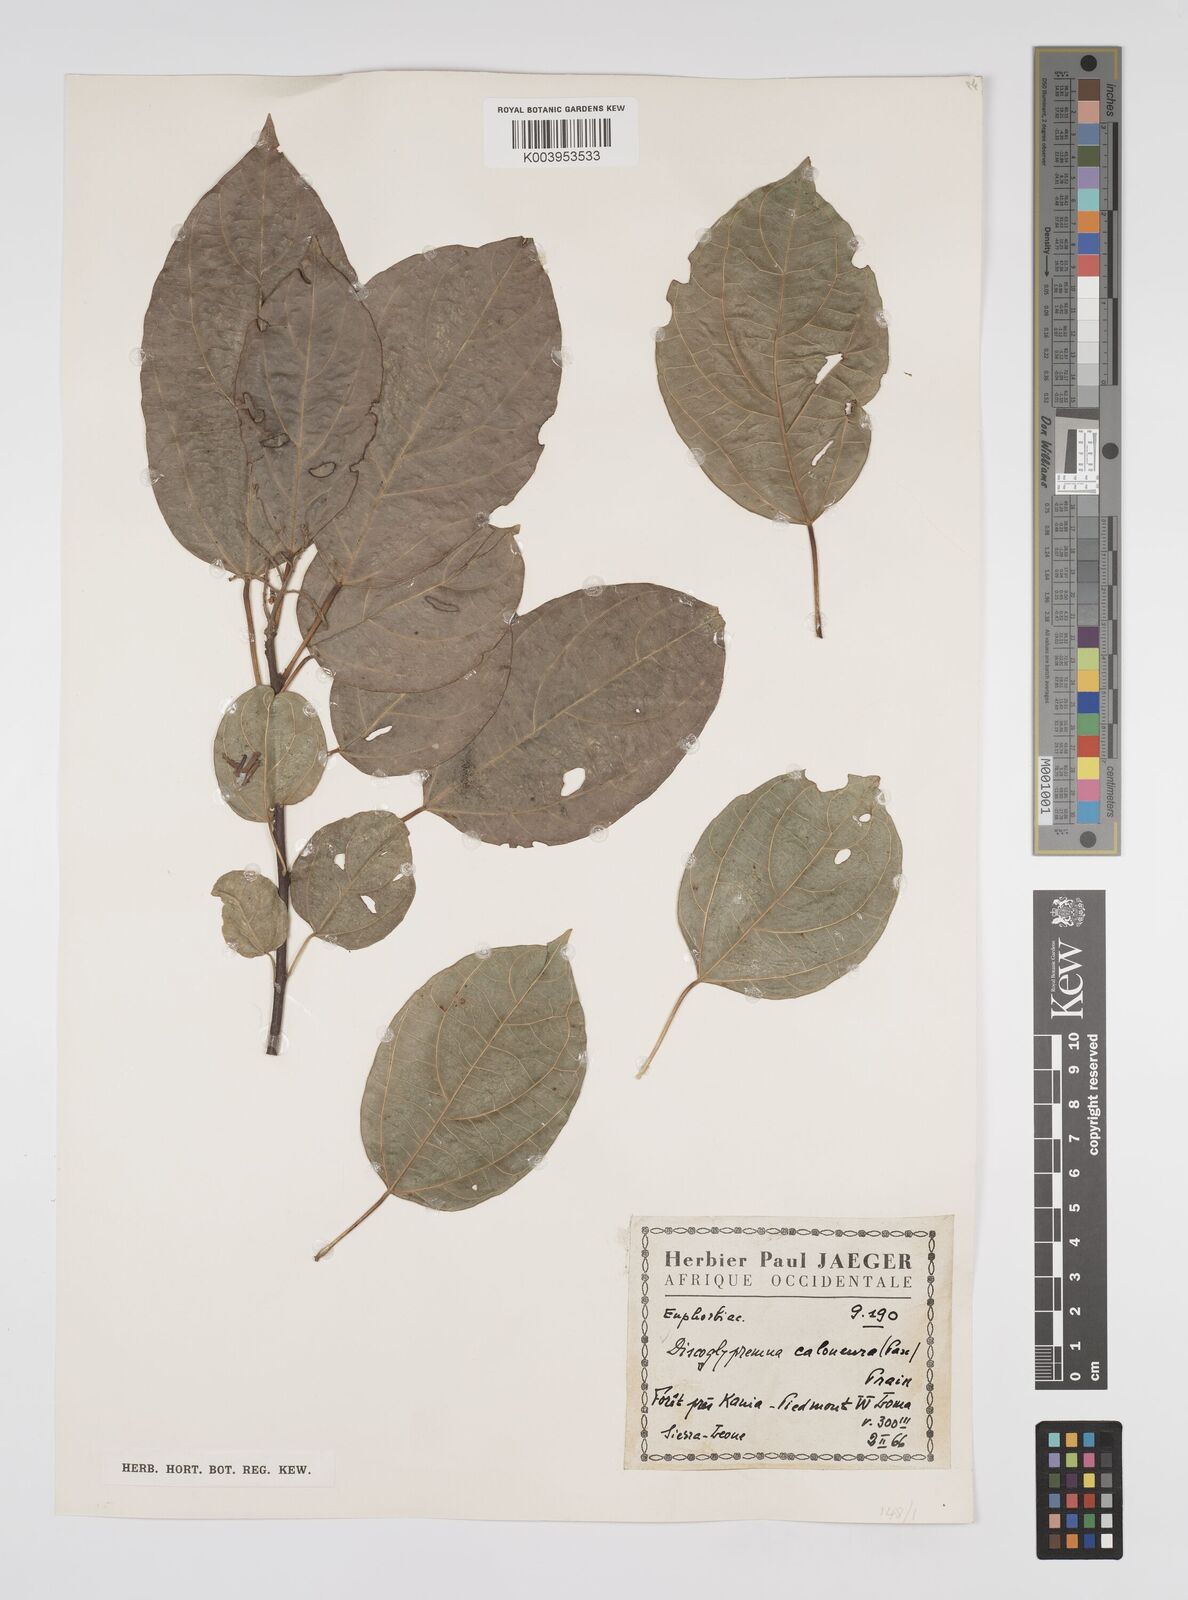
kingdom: Plantae
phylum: Tracheophyta
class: Magnoliopsida
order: Malpighiales
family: Euphorbiaceae
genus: Discoglypremna
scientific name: Discoglypremna caloneura
